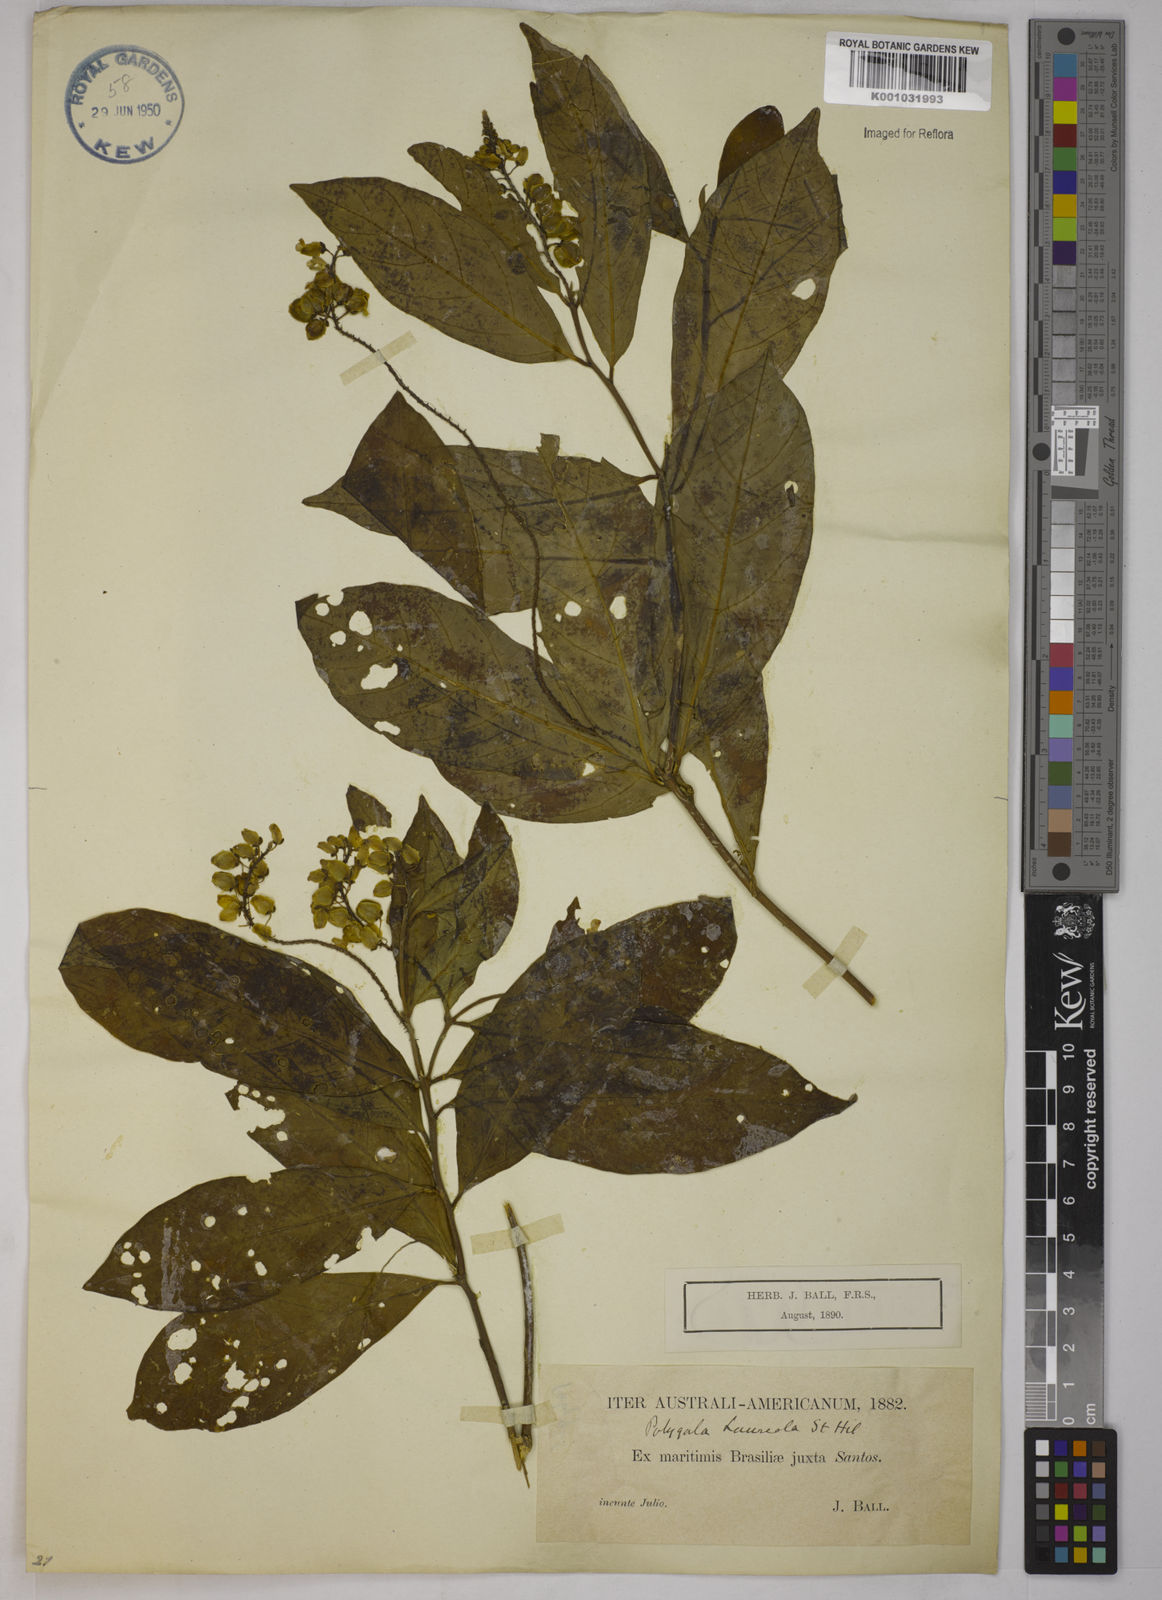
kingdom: Plantae
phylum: Tracheophyta
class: Magnoliopsida
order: Fabales
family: Polygalaceae
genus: Caamembeca
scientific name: Caamembeca salicifolia
